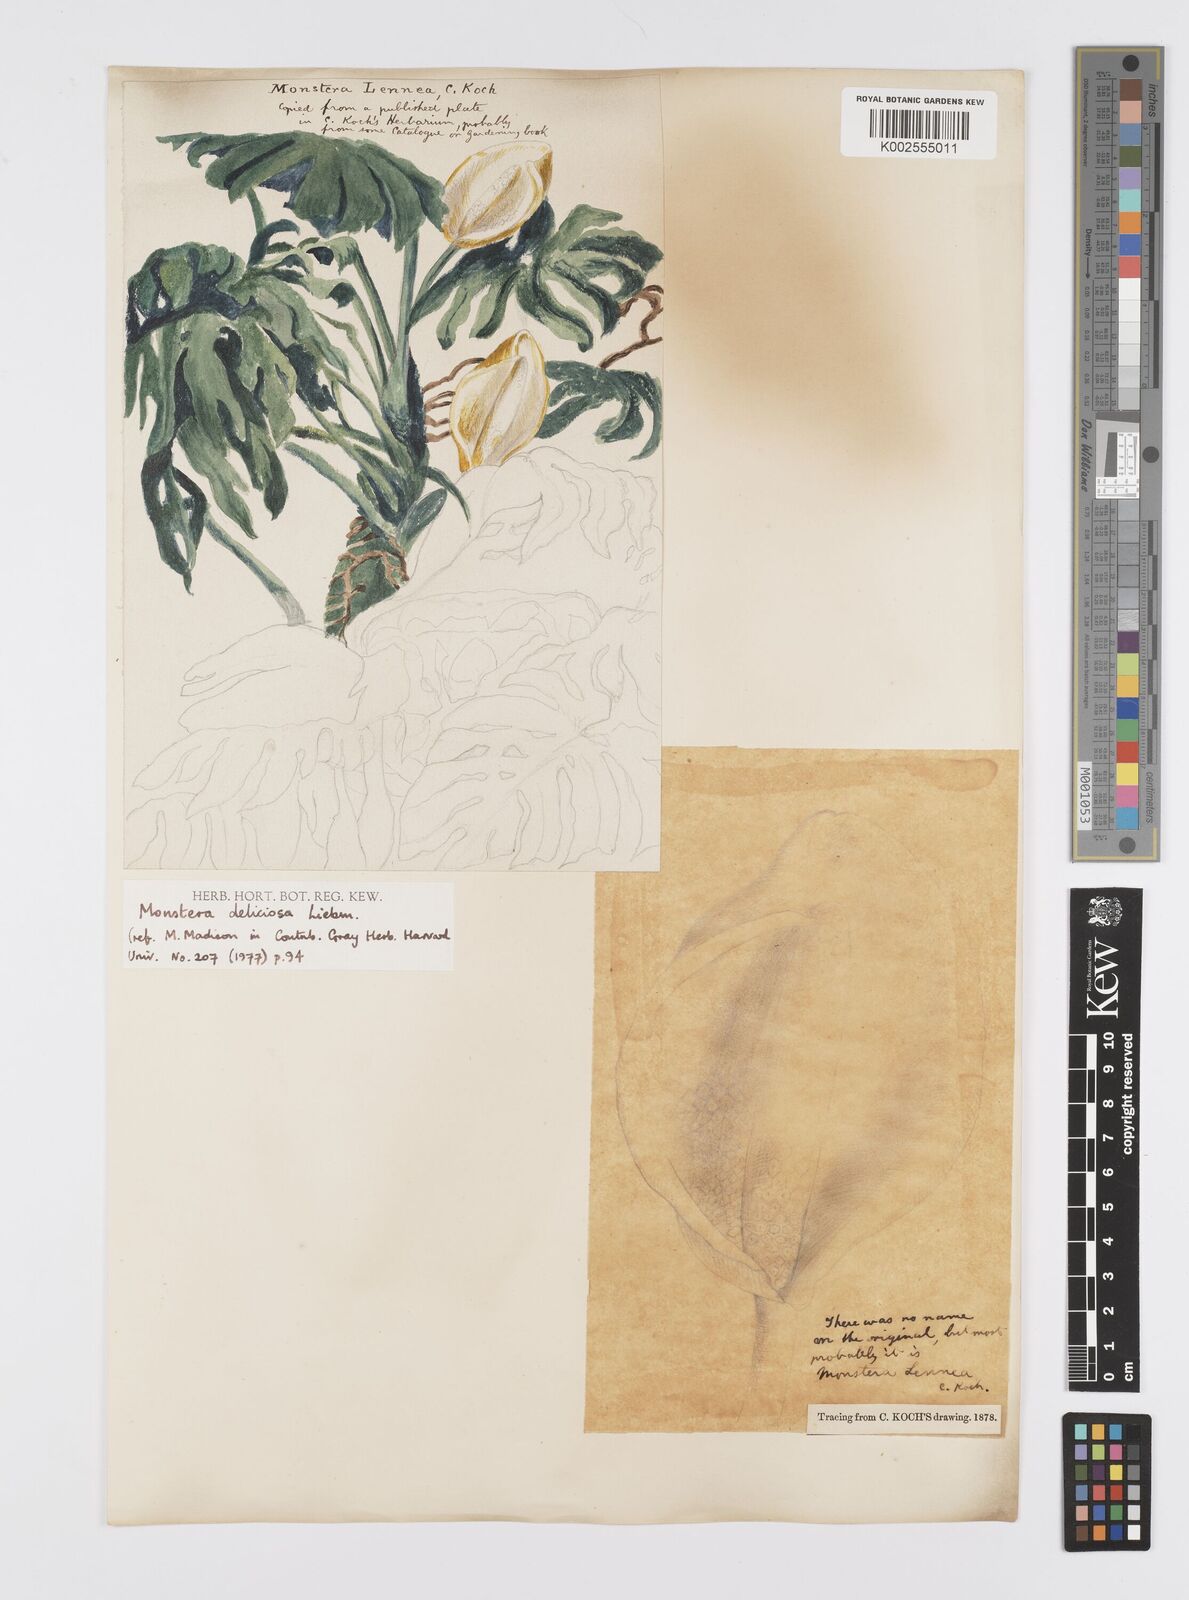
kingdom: Plantae
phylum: Tracheophyta
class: Liliopsida
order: Alismatales
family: Araceae
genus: Monstera
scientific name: Monstera deliciosa
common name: Cut-leaf-philodendron
